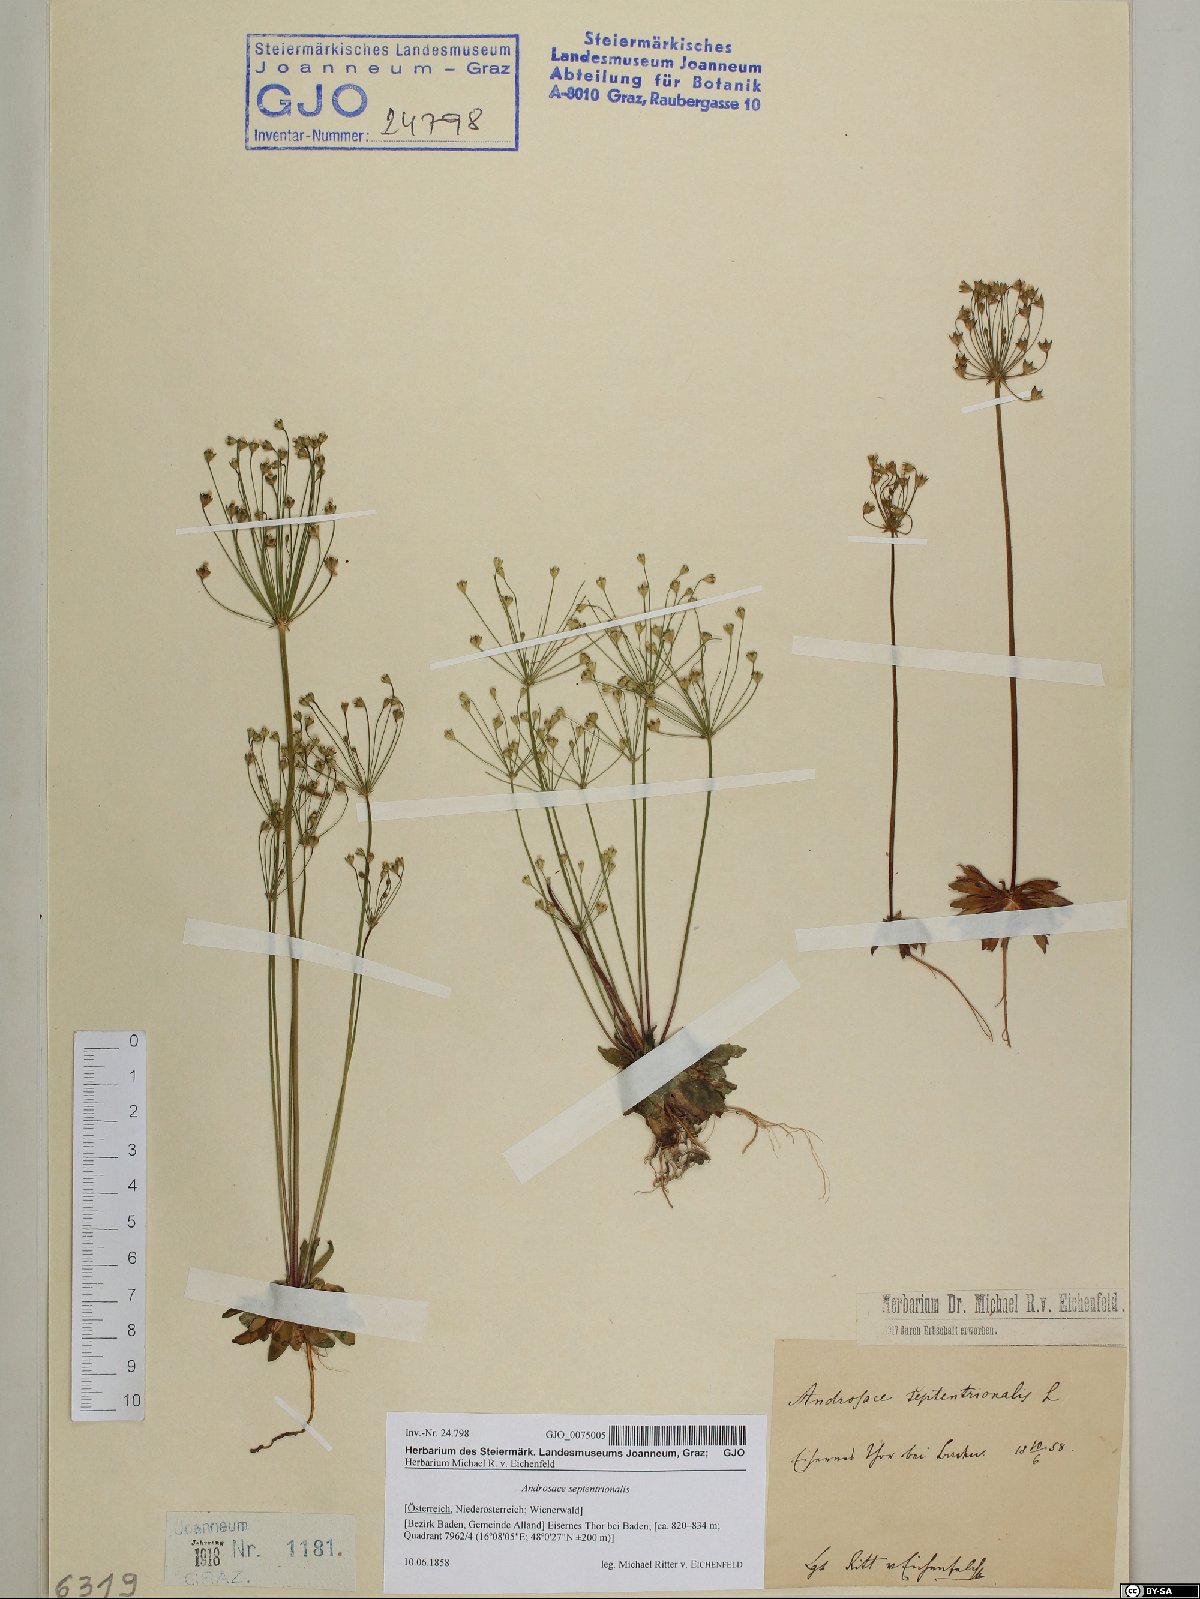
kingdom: Plantae
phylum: Tracheophyta
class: Magnoliopsida
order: Ericales
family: Primulaceae
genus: Androsace
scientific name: Androsace septentrionalis
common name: Hairy northern fairy-candelabra
